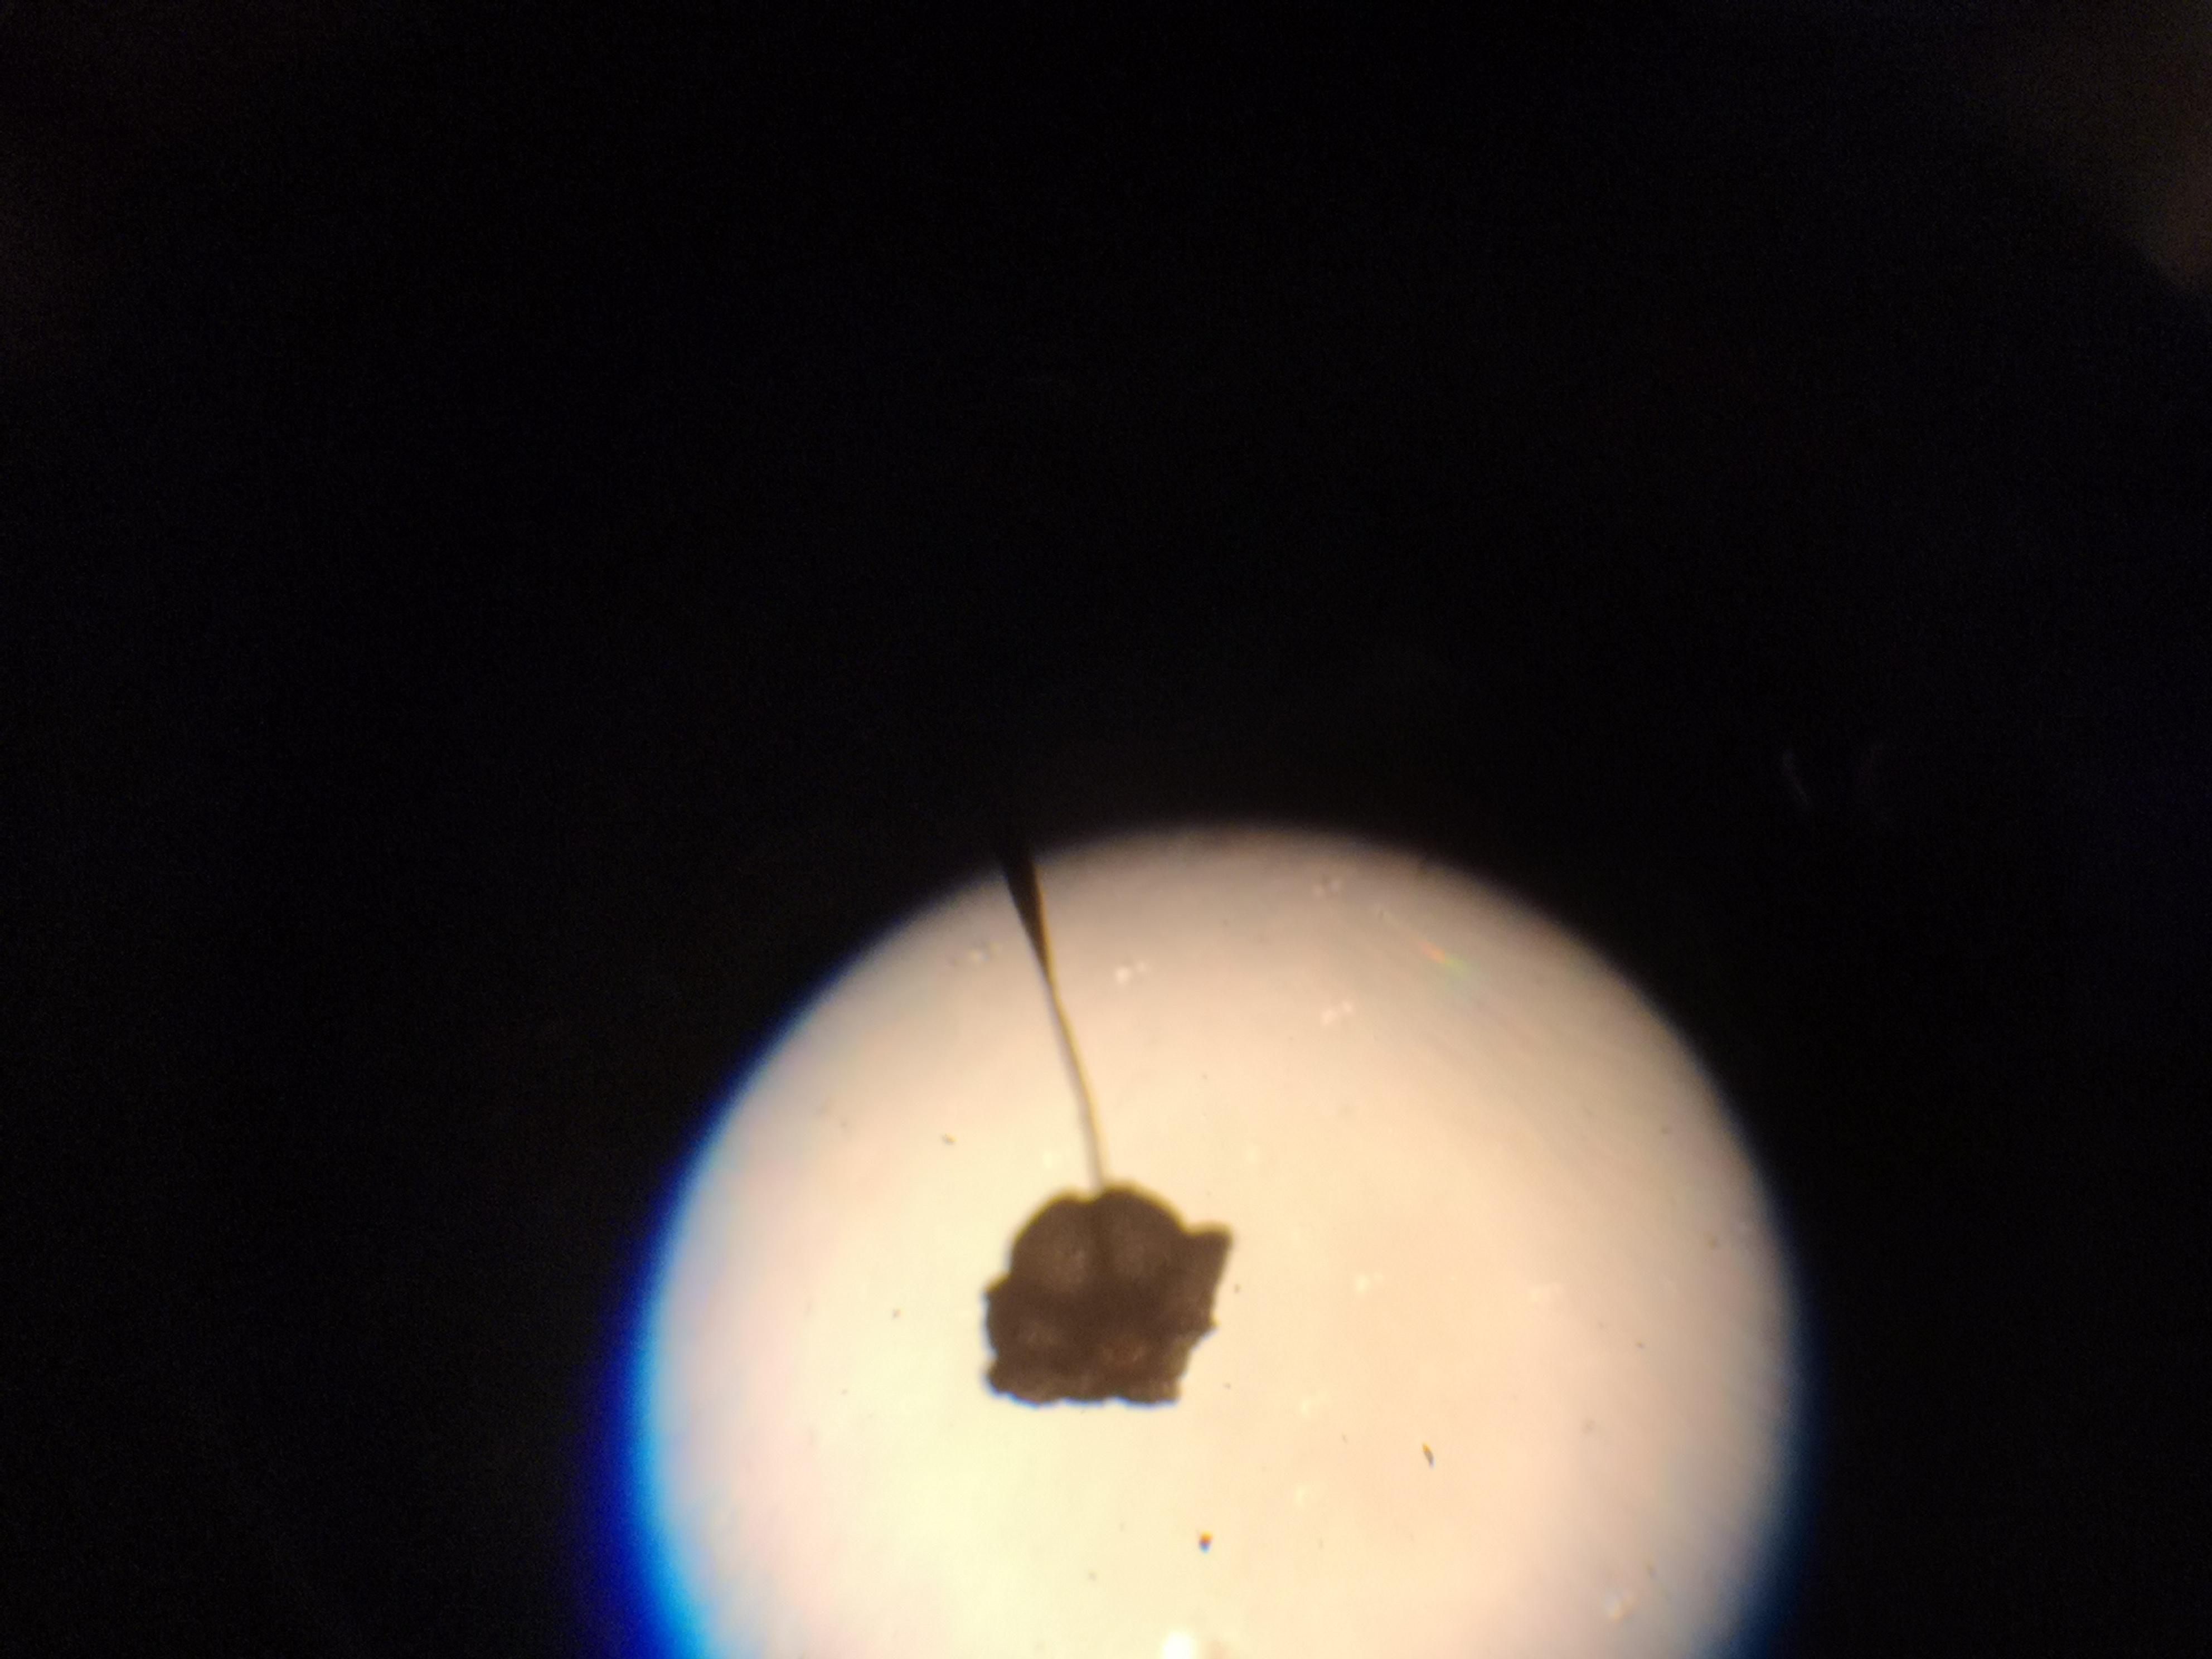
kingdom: Fungi
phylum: Basidiomycota
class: Agaricomycetes
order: Agaricales
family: Marasmiaceae
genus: Marasmius
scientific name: Marasmius limosus
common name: kær-bruskhat
